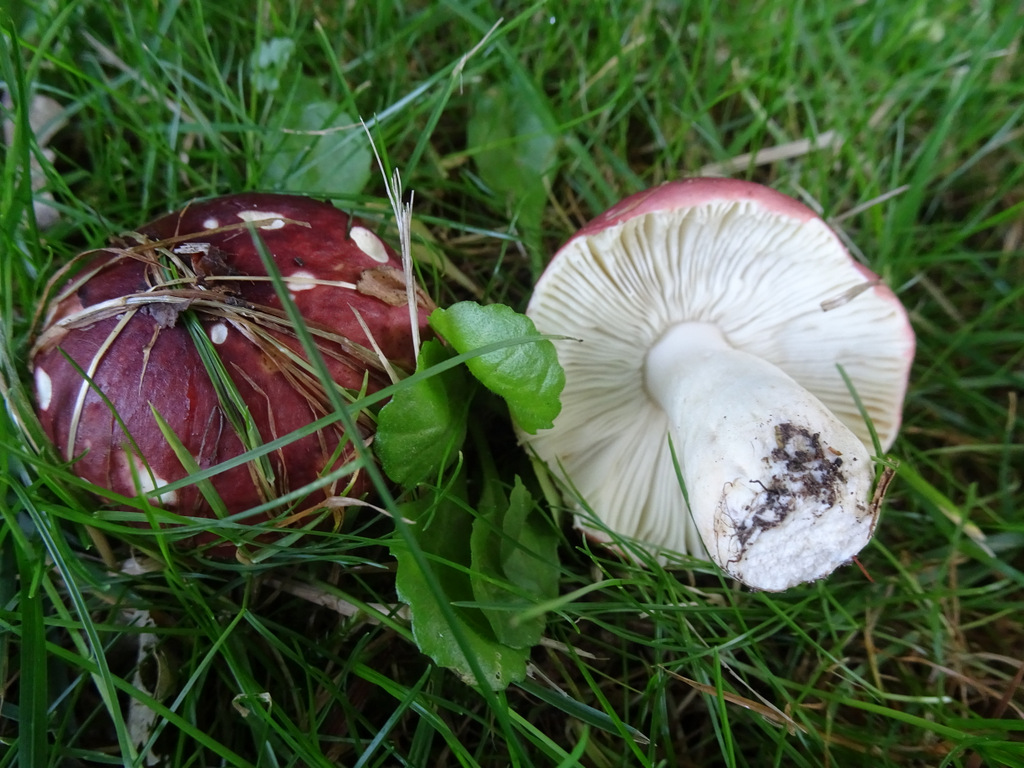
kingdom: Fungi
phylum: Basidiomycota
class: Agaricomycetes
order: Russulales
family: Russulaceae
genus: Russula
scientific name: Russula atropurpurea
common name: purpurbroget skørhat
